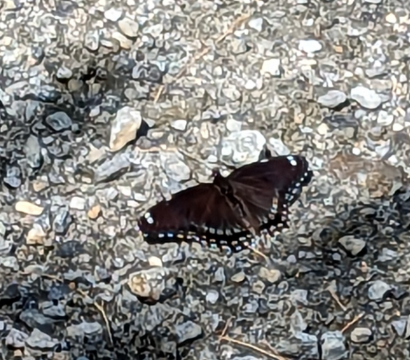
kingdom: Animalia
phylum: Arthropoda
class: Insecta
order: Lepidoptera
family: Nymphalidae
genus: Limenitis
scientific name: Limenitis arthemis
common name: Red-spotted Admiral
